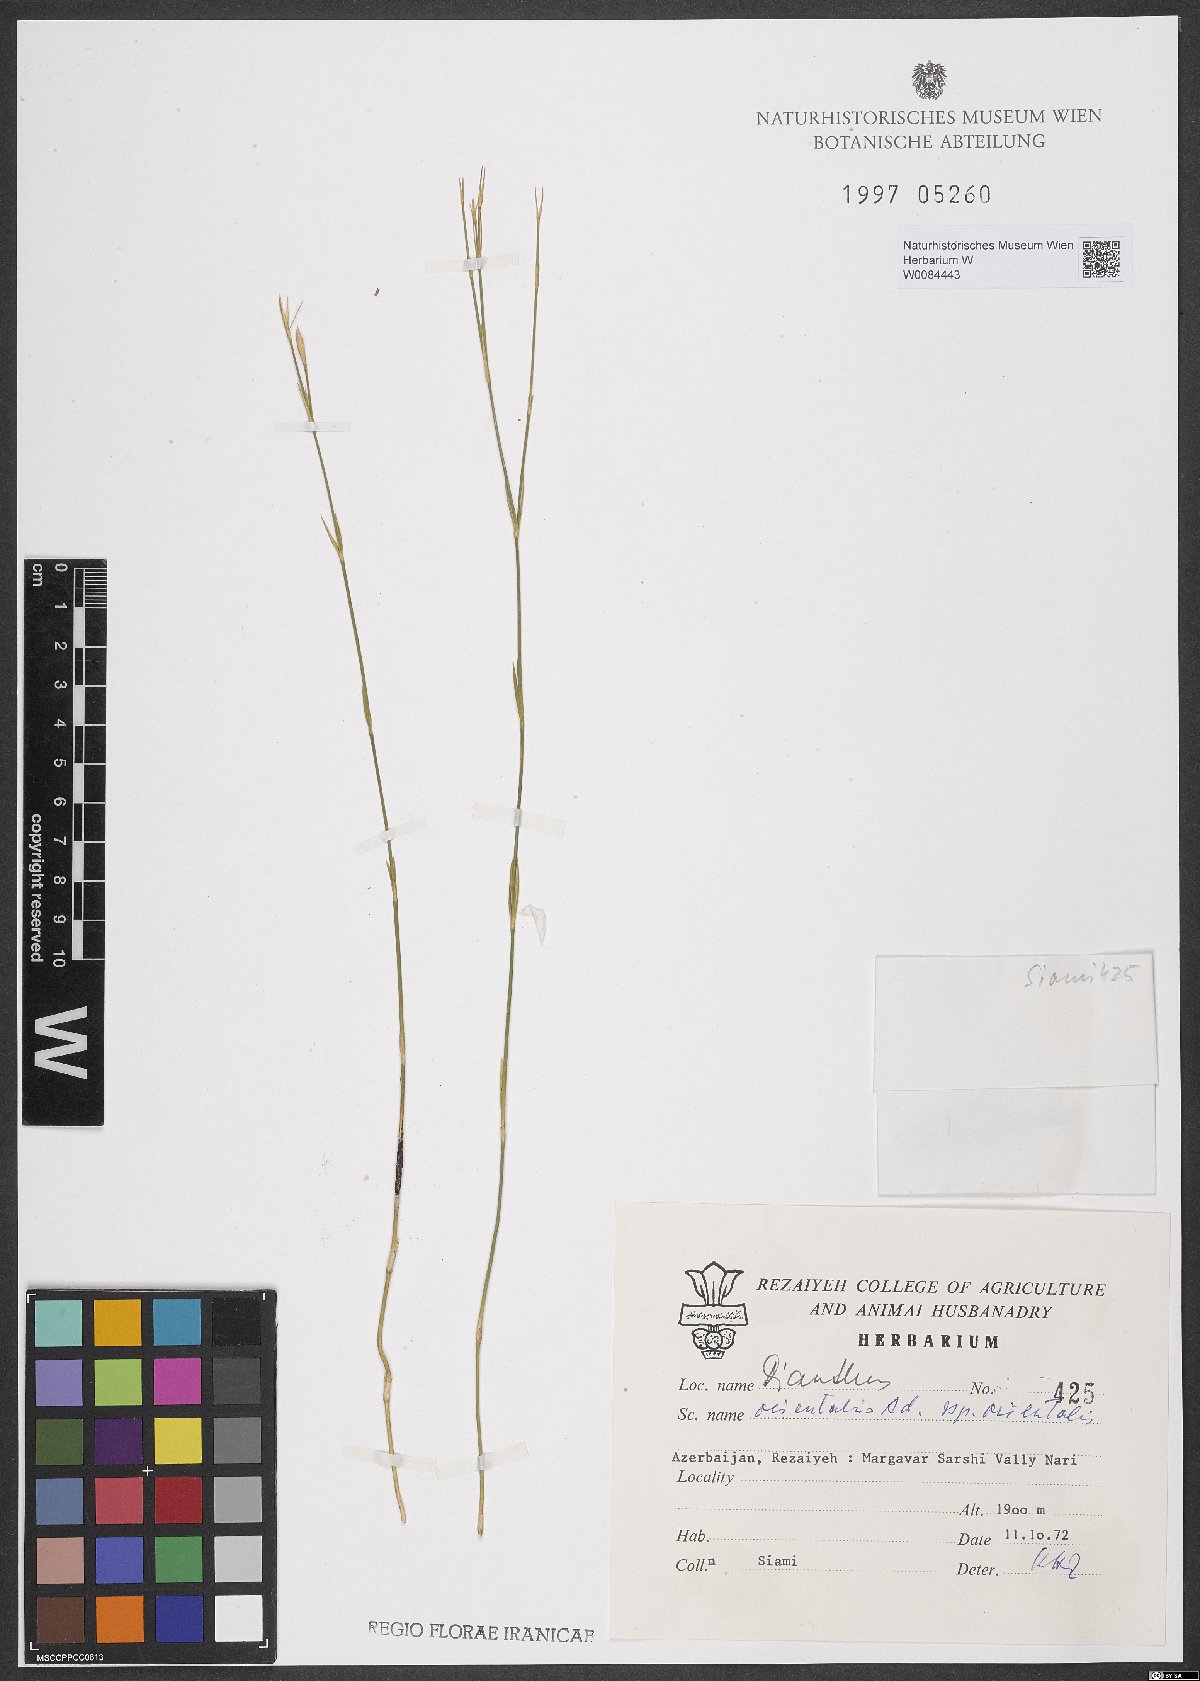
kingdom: Plantae
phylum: Tracheophyta
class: Magnoliopsida
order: Caryophyllales
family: Caryophyllaceae
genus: Dianthus
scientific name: Dianthus orientalis
